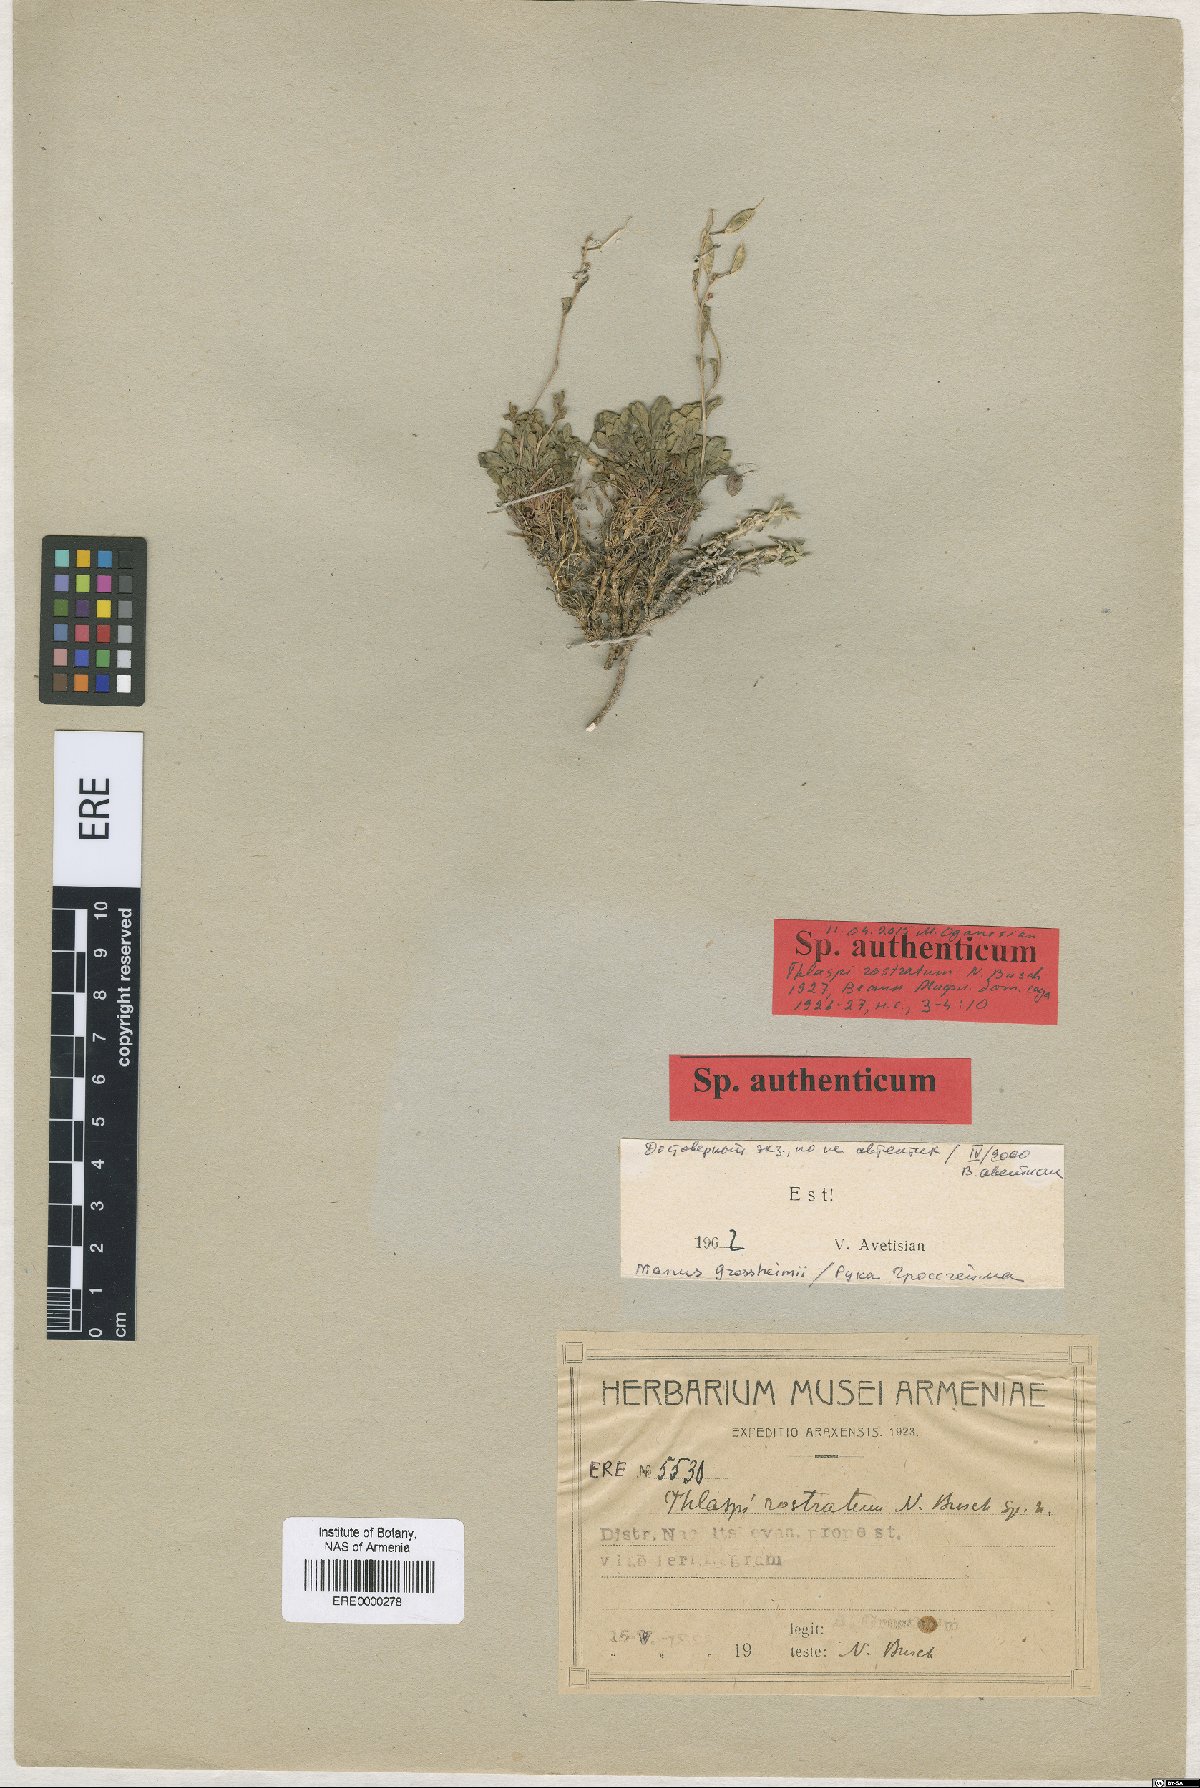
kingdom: Plantae
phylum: Tracheophyta
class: Magnoliopsida
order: Brassicales
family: Brassicaceae
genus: Noccaea
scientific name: Noccaea rostrata
